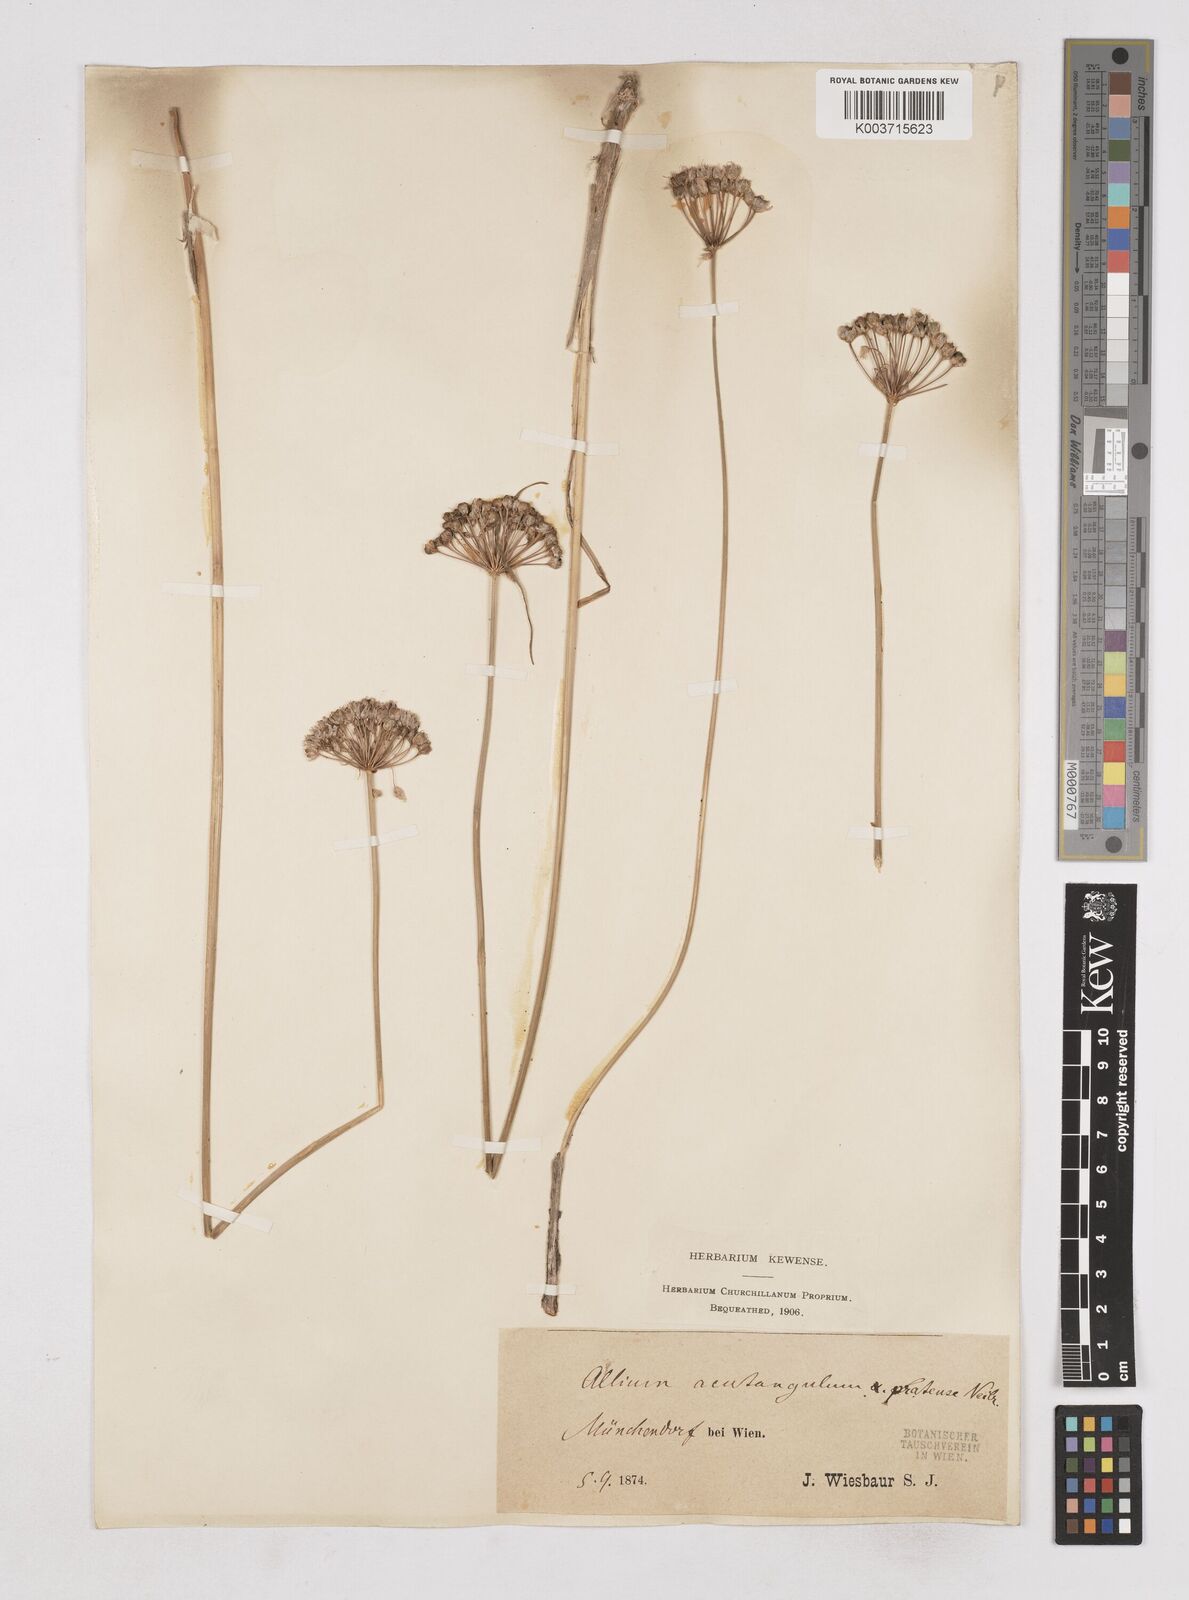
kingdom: Plantae
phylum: Tracheophyta
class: Liliopsida
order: Asparagales
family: Amaryllidaceae
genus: Allium
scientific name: Allium angulosum
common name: Mouse garlic
